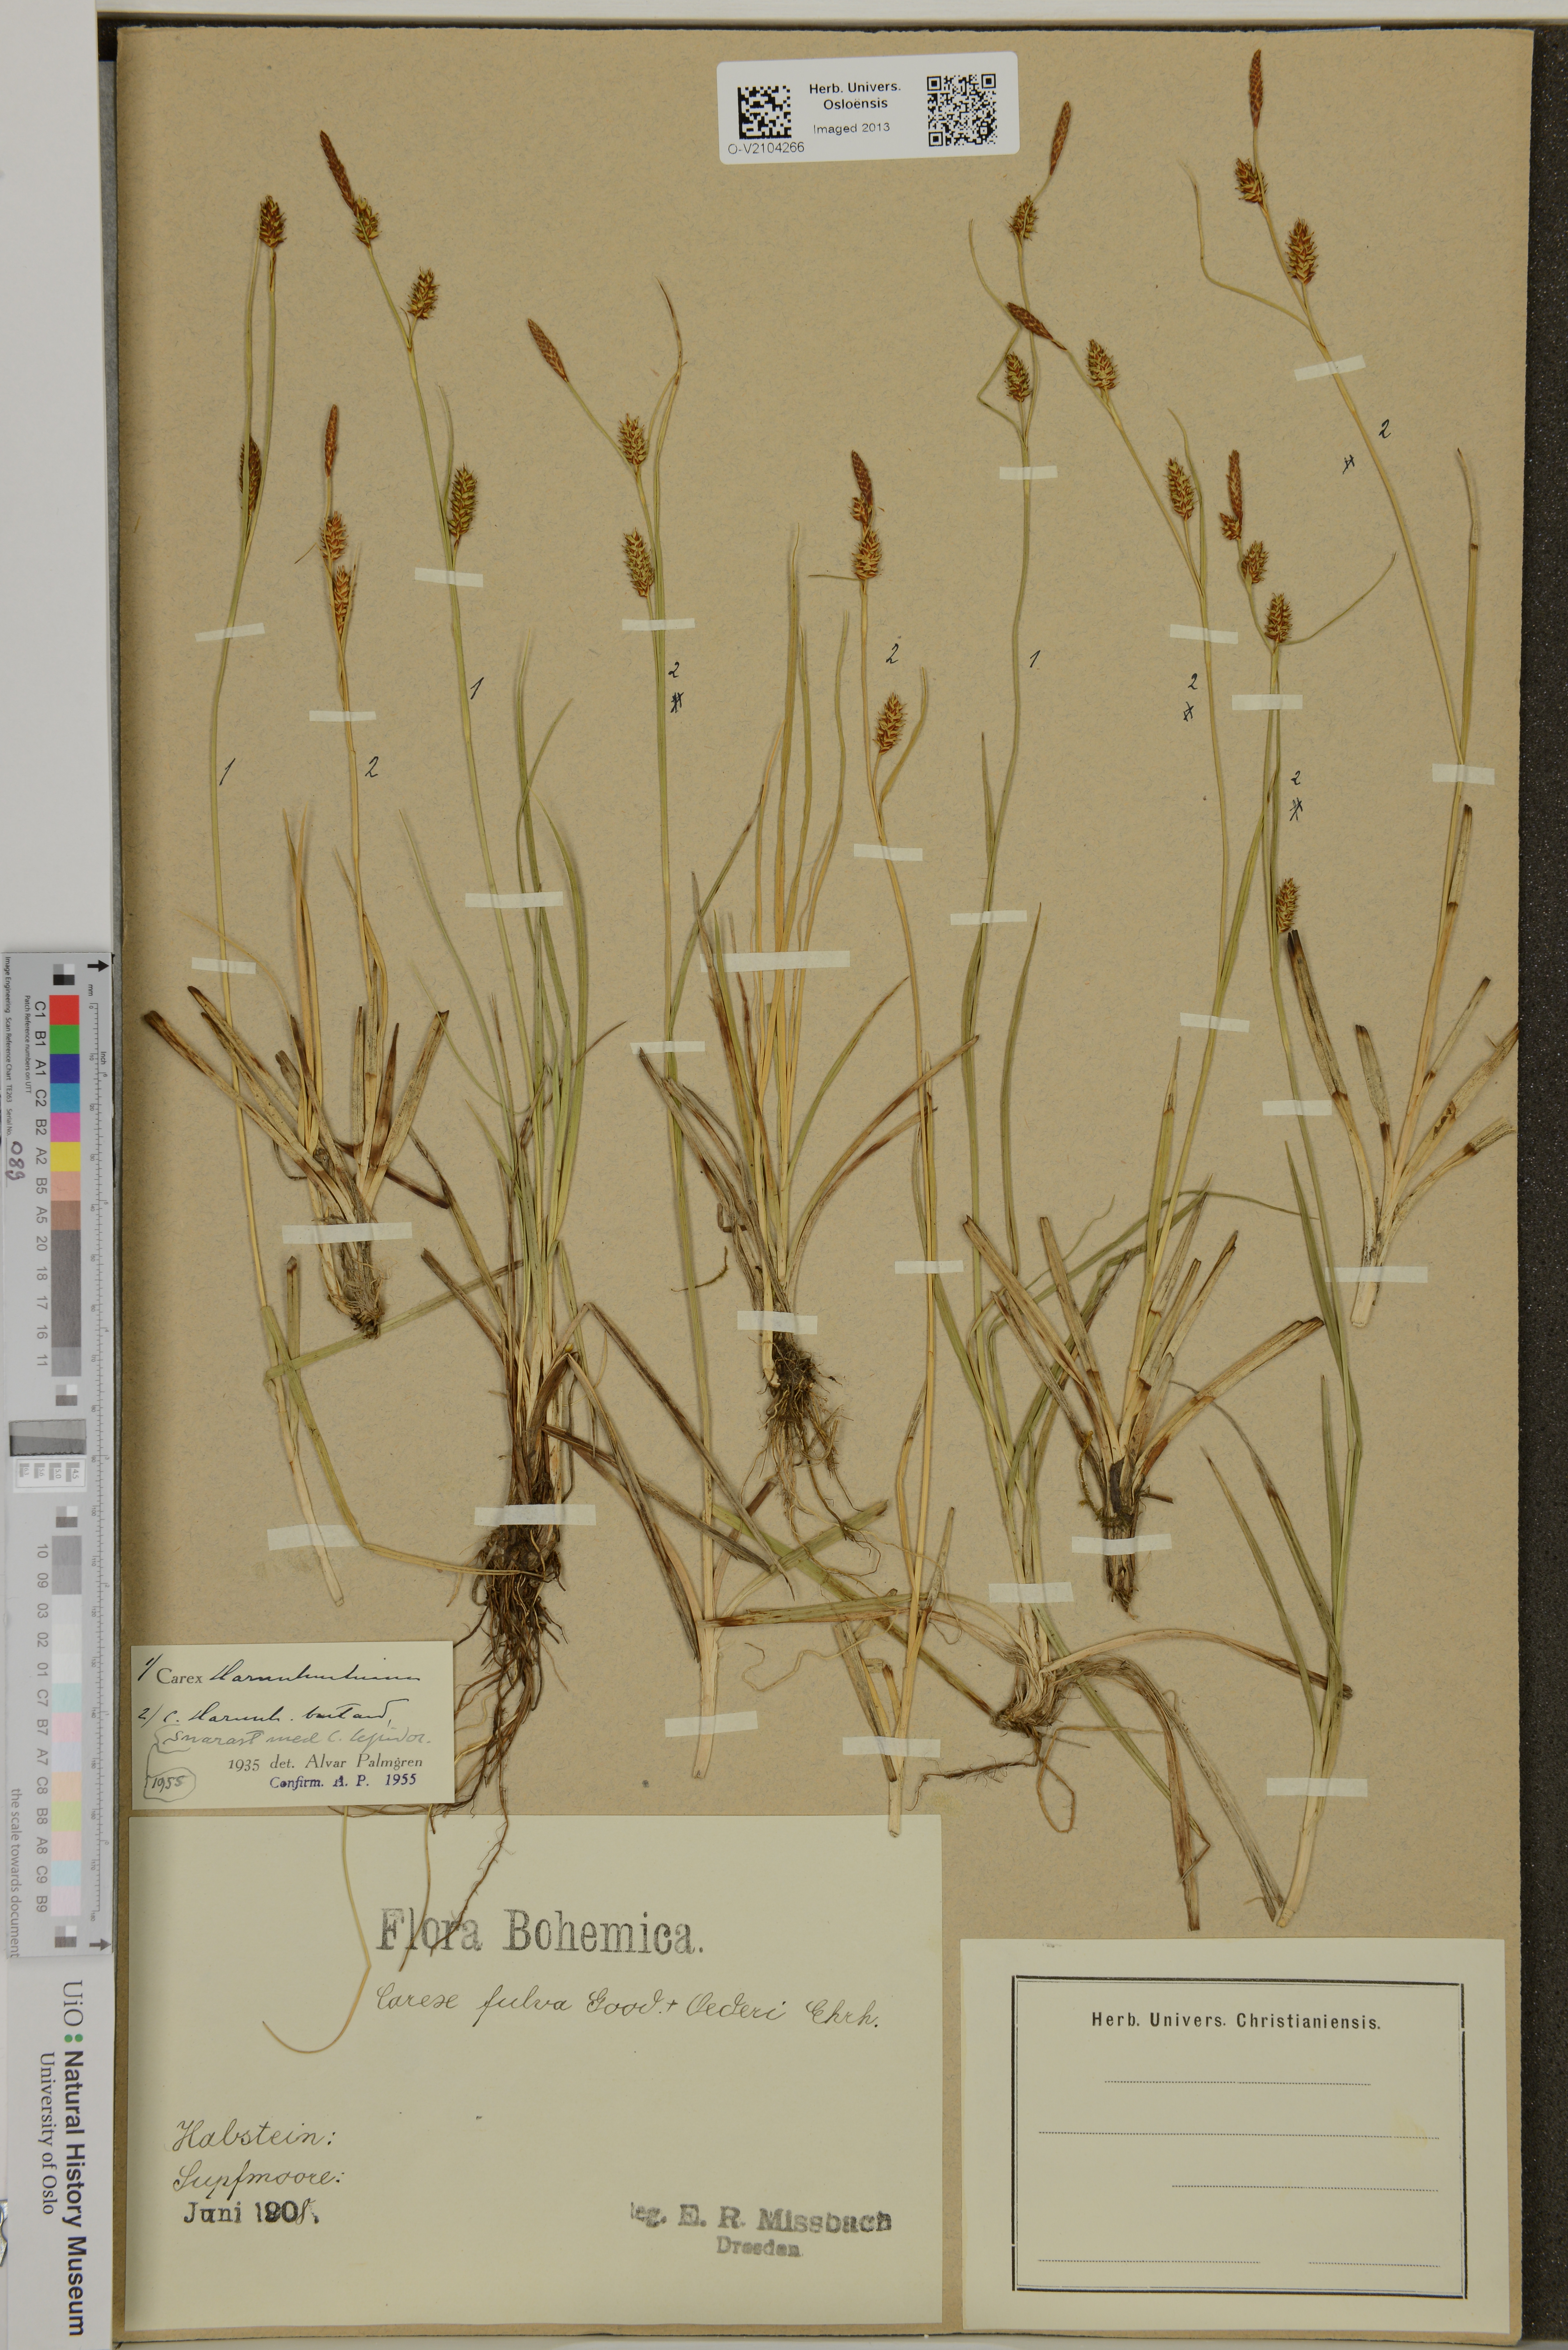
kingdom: Plantae
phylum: Tracheophyta
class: Liliopsida
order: Poales
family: Cyperaceae
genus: Carex
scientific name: Carex hostiana
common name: Tawny sedge
